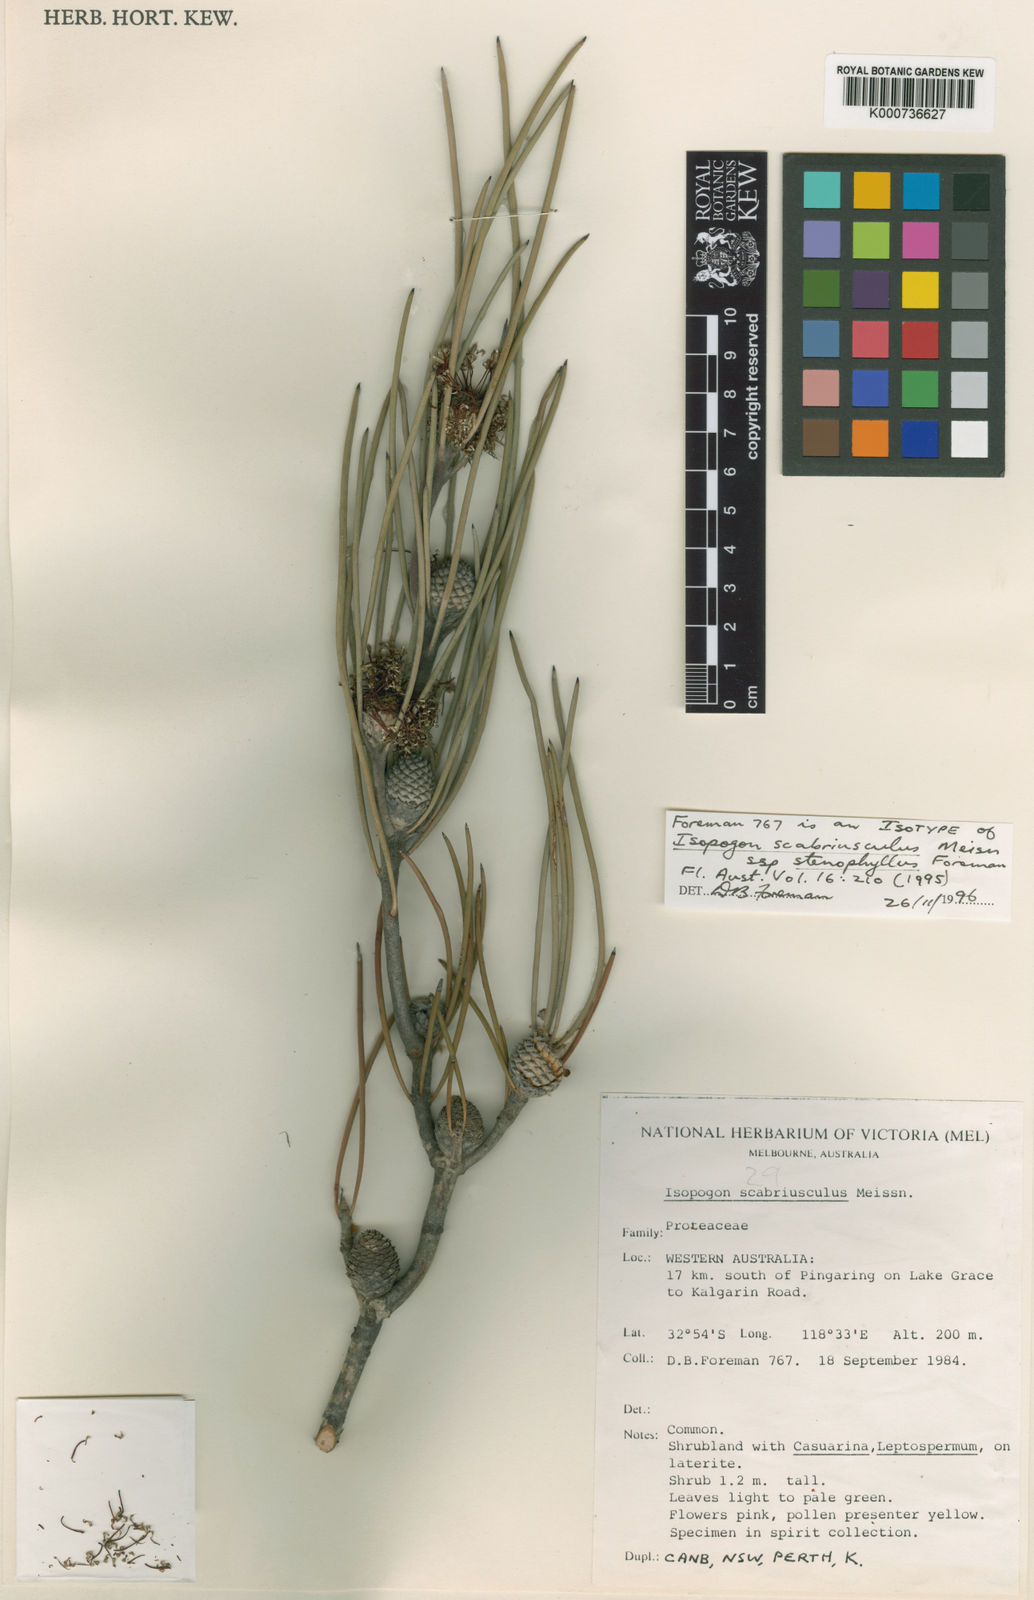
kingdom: Plantae
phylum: Tracheophyta
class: Magnoliopsida
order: Proteales
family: Proteaceae
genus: Isopogon
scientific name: Isopogon scabriusculus
